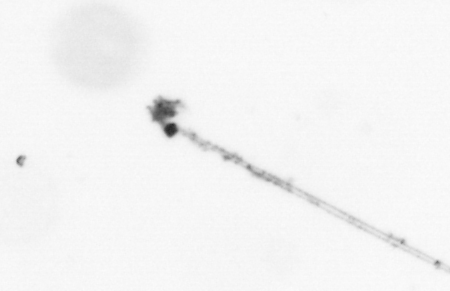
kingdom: Chromista
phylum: Ochrophyta
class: Bacillariophyceae
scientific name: Bacillariophyceae
